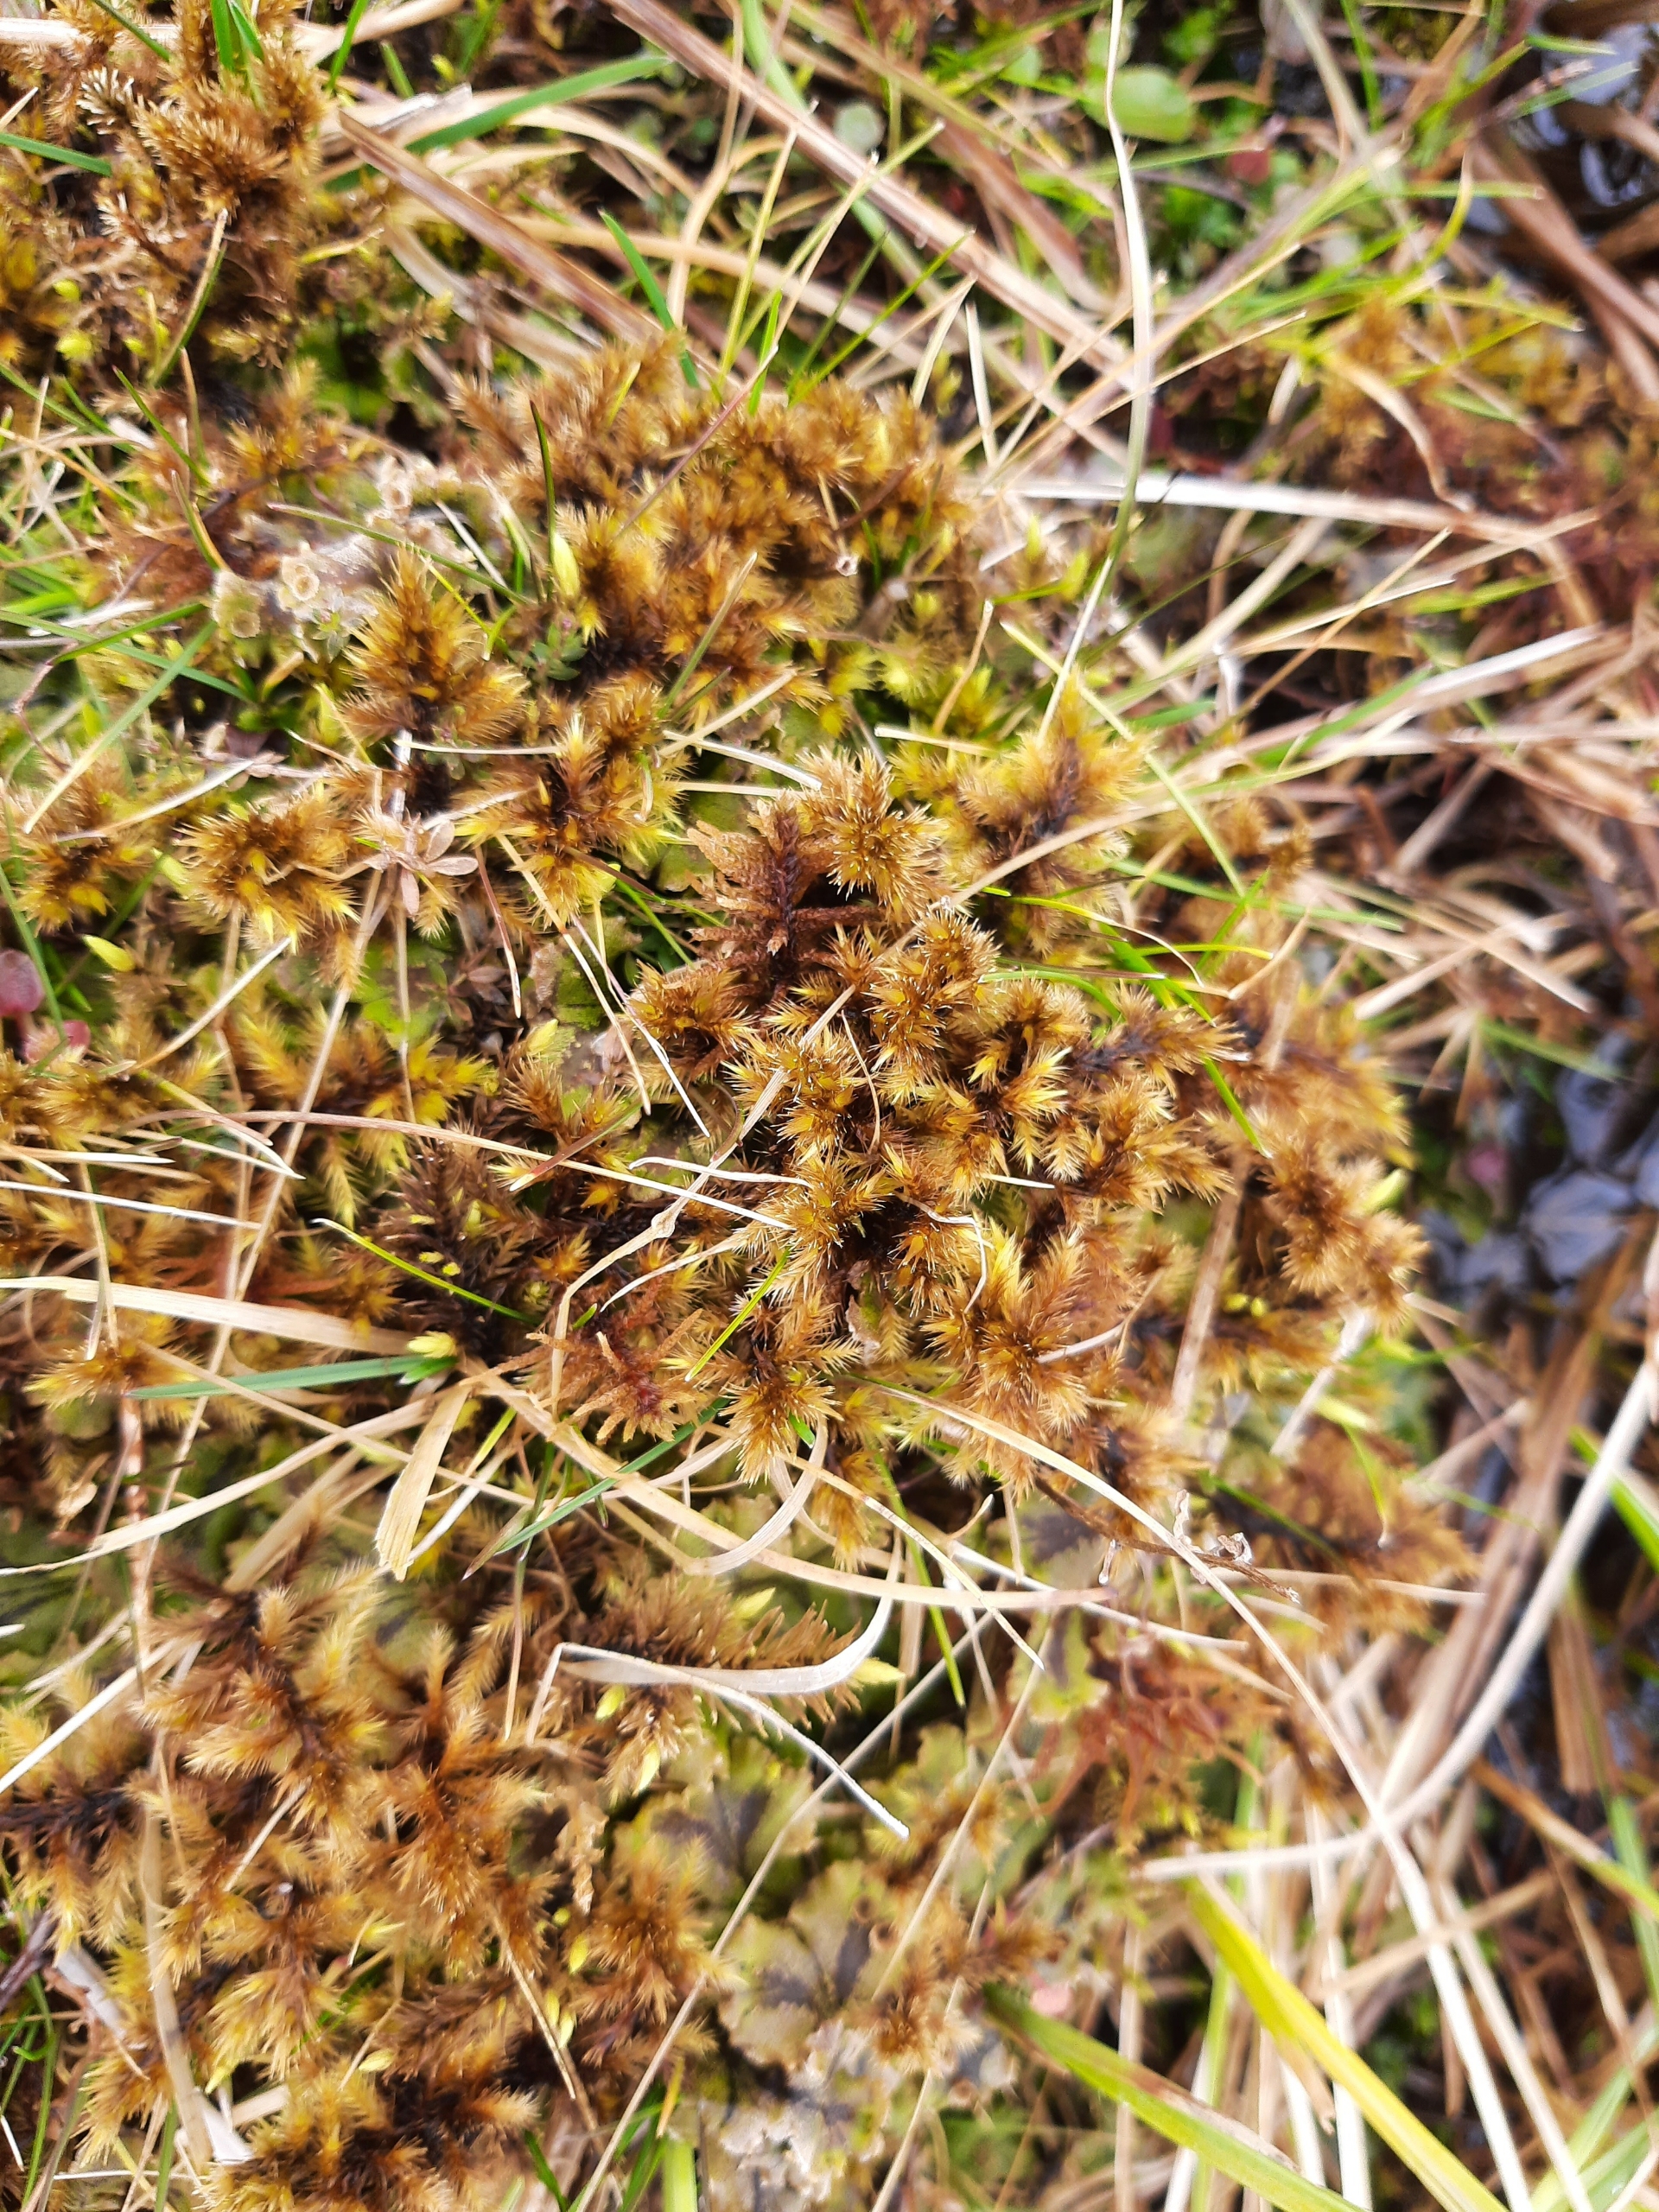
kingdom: Plantae
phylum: Bryophyta
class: Bryopsida
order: Hypnales
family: Amblystegiaceae
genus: Tomentypnum
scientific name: Tomentypnum nitens
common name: Glinsende kærmos
